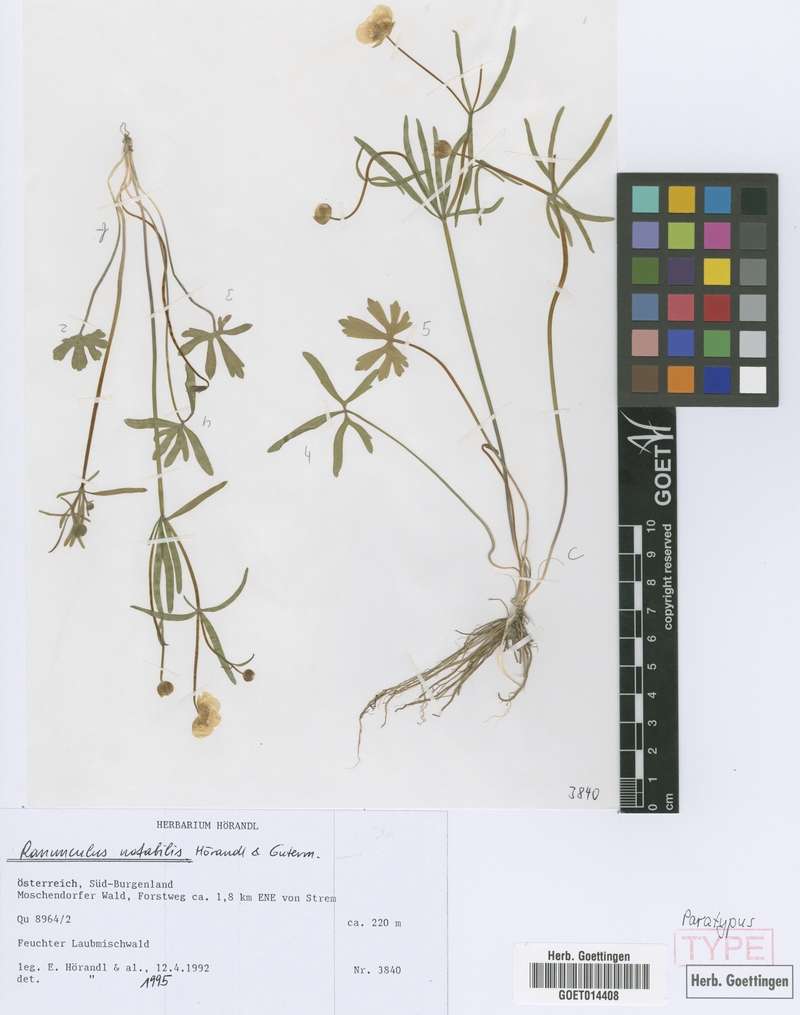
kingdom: Plantae
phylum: Tracheophyta
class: Magnoliopsida
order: Ranunculales
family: Ranunculaceae
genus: Ranunculus
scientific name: Ranunculus notabilis
